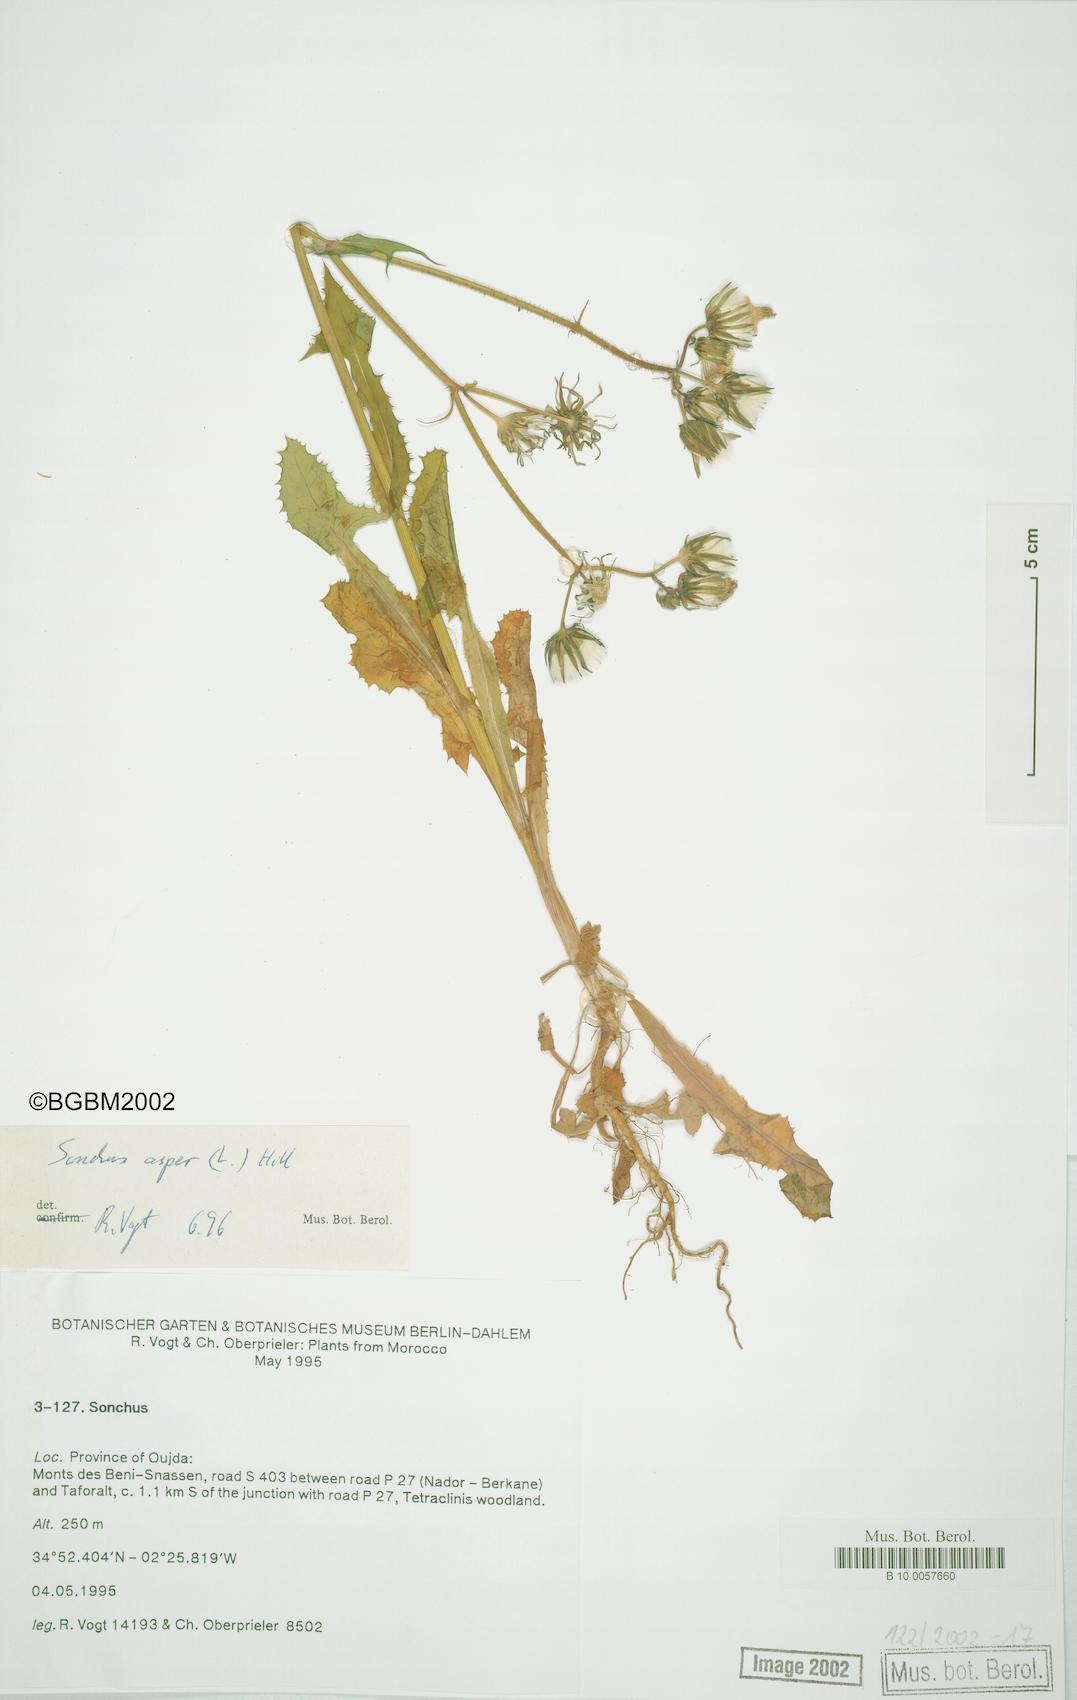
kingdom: Plantae
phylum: Tracheophyta
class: Magnoliopsida
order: Asterales
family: Asteraceae
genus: Sonchus
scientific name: Sonchus asper
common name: Prickly sow-thistle
